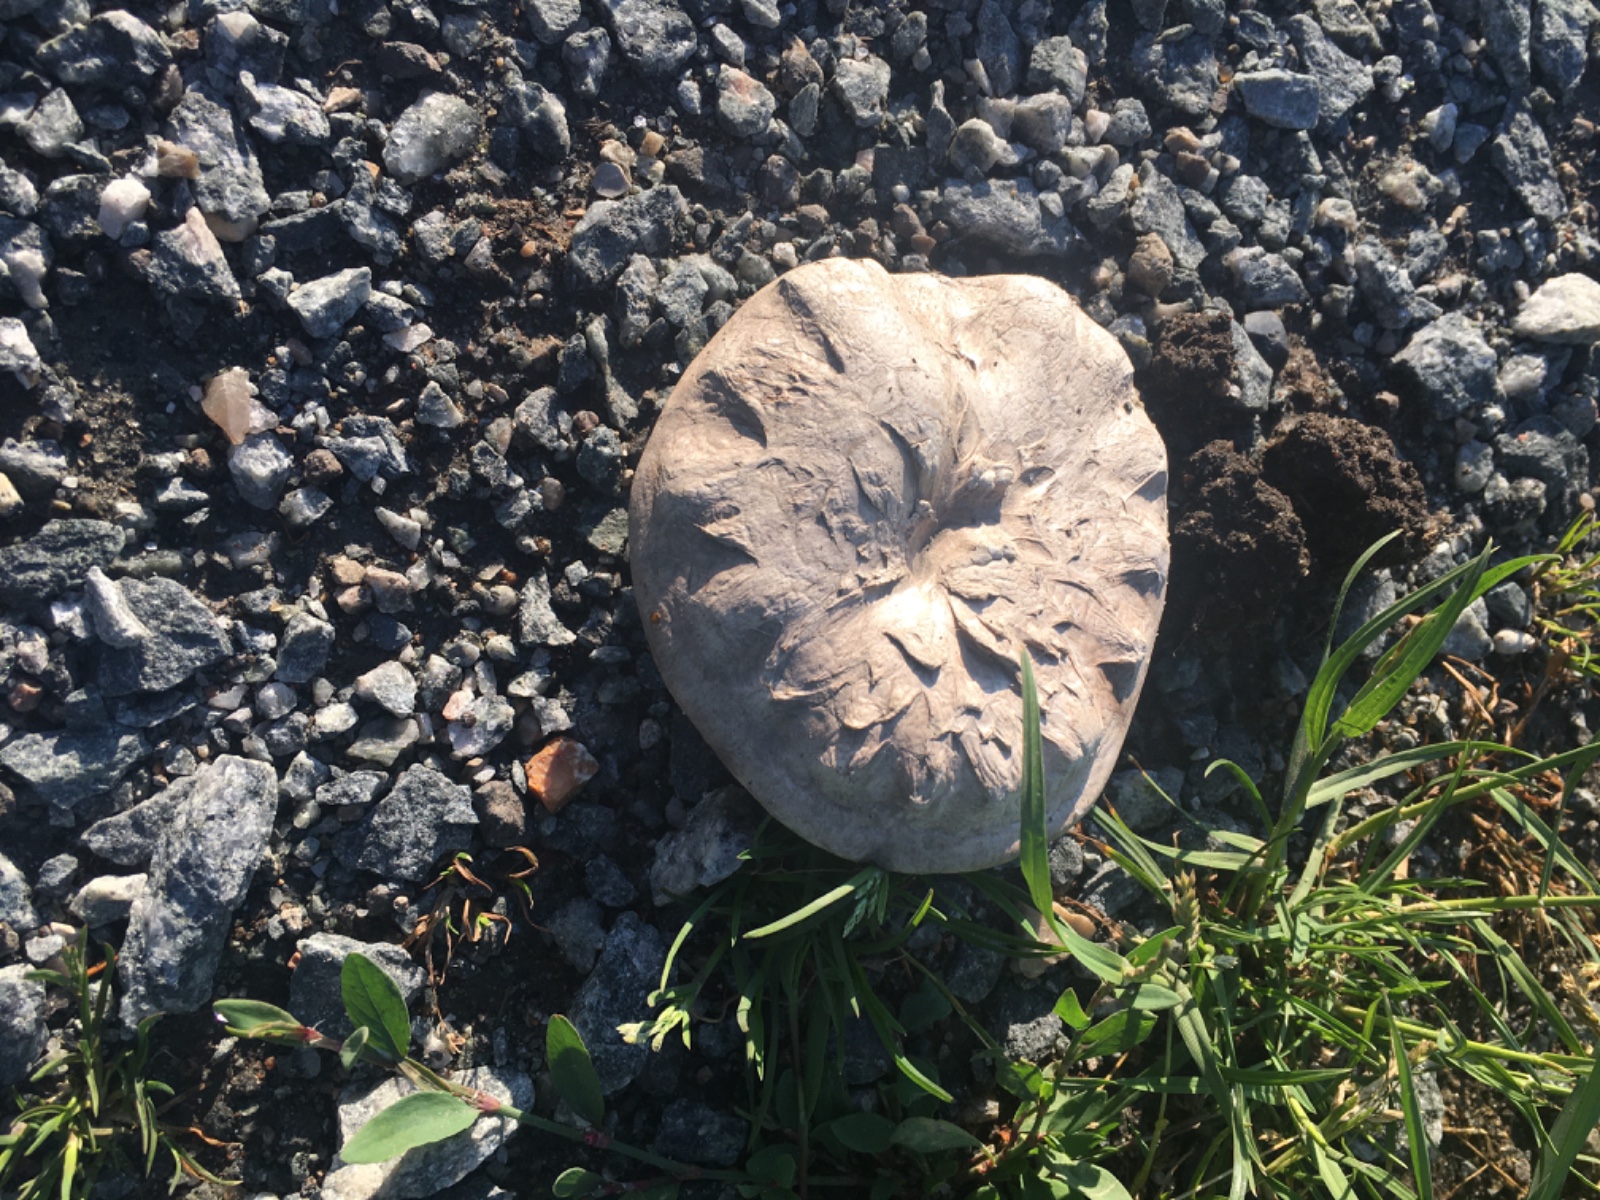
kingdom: Fungi
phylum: Basidiomycota
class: Agaricomycetes
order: Agaricales
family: Agaricaceae
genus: Agaricus
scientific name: Agaricus bitorquis
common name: vej-champignon
